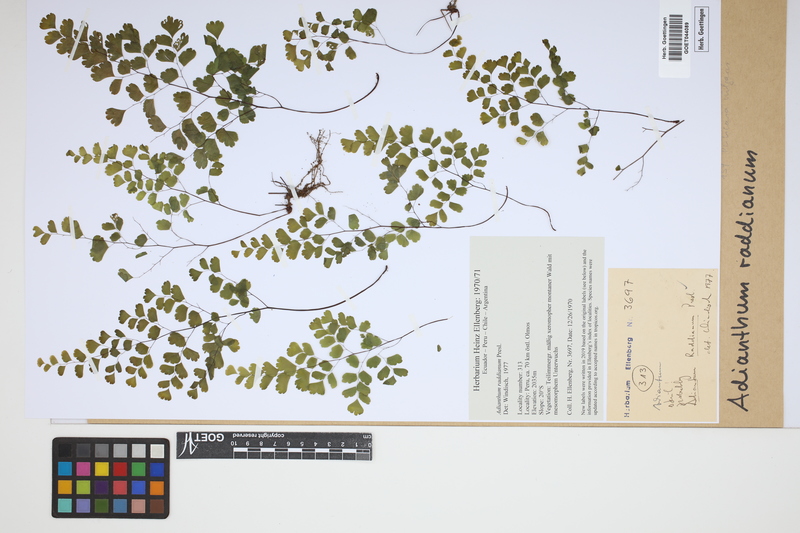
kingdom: Plantae
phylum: Tracheophyta
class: Polypodiopsida
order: Polypodiales
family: Pteridaceae
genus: Adiantum
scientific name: Adiantum raddianum
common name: Delta maidenhair fern
